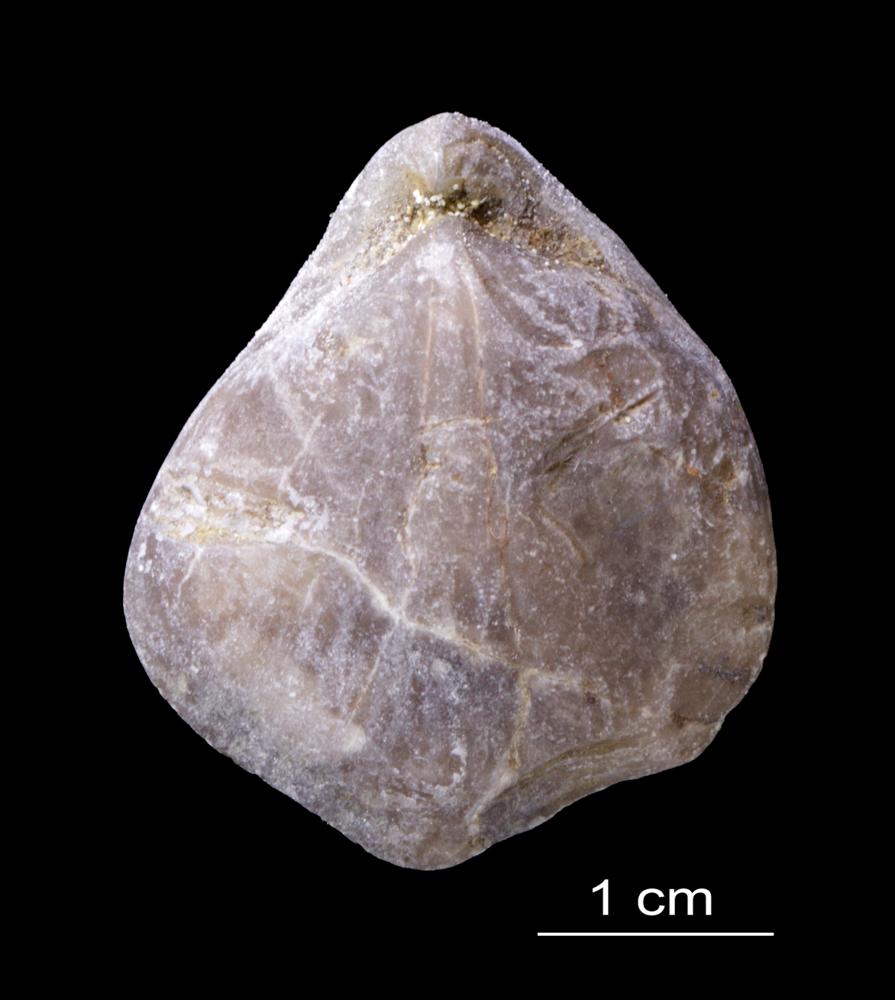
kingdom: Animalia
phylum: Brachiopoda
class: Rhynchonellata
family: Pentameridae
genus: Rhipidium
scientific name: Rhipidium Pentamerus tenuistratus
